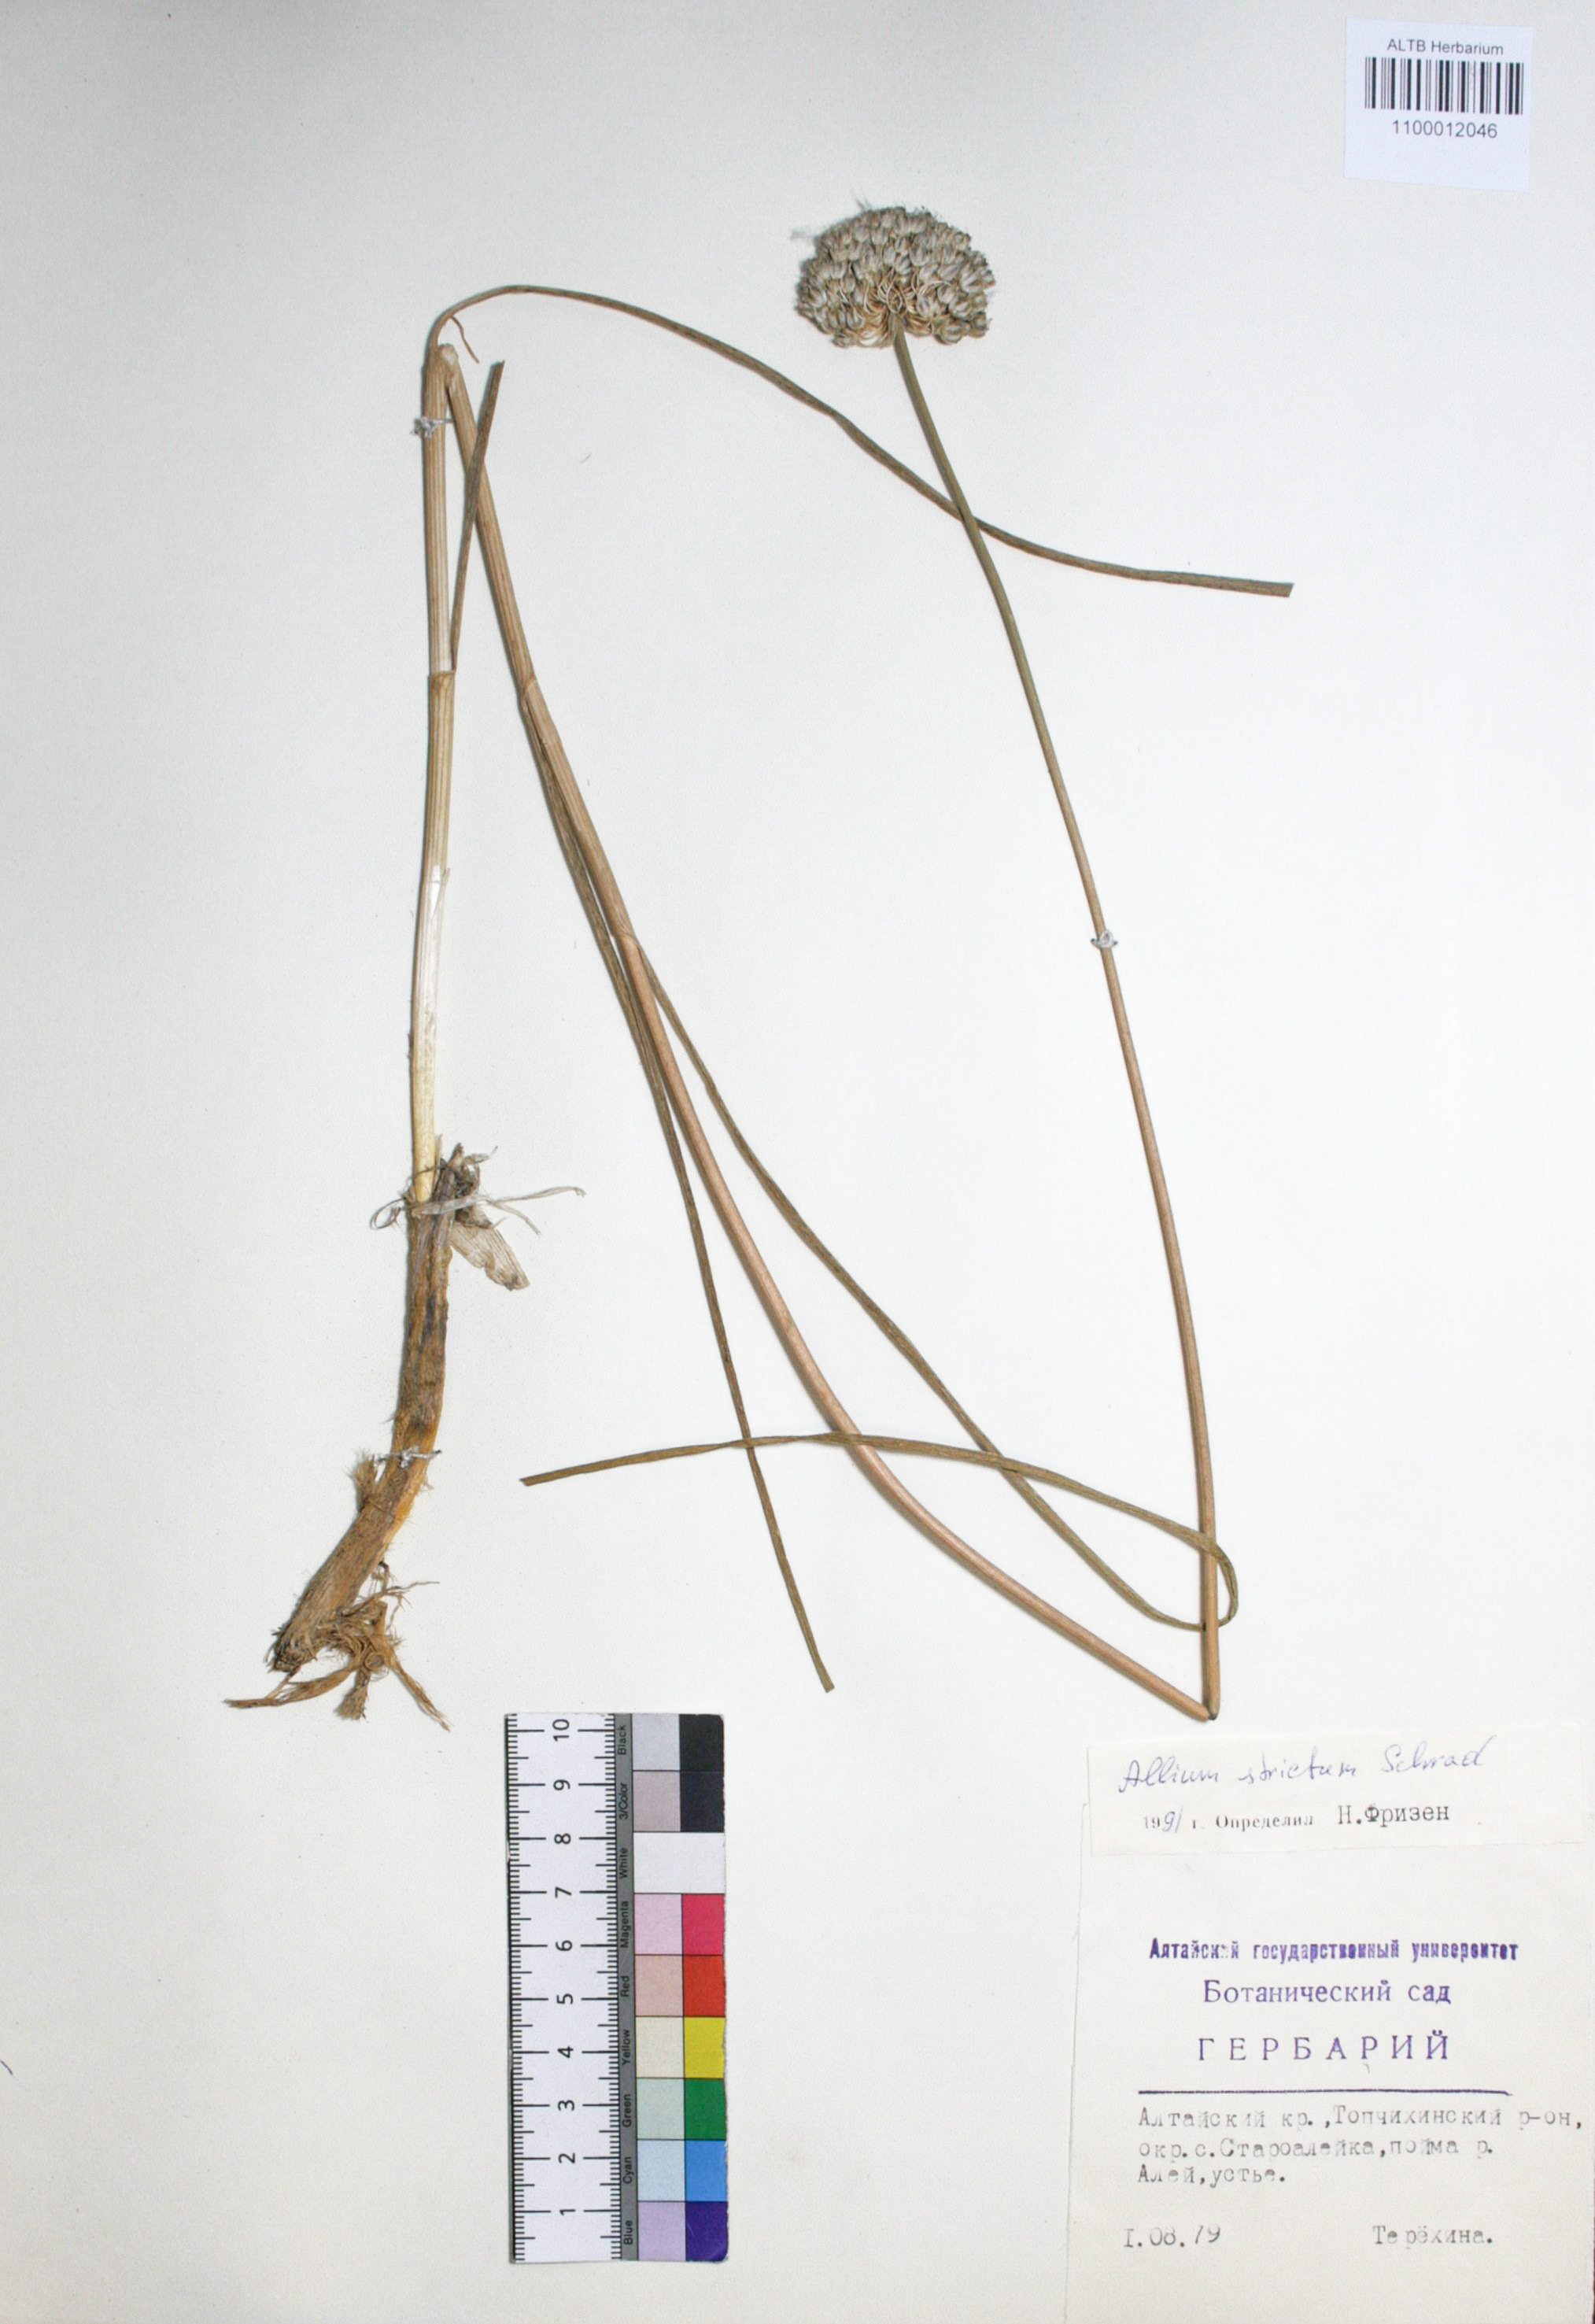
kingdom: Plantae
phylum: Tracheophyta
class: Liliopsida
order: Asparagales
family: Amaryllidaceae
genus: Allium
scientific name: Allium strictum
